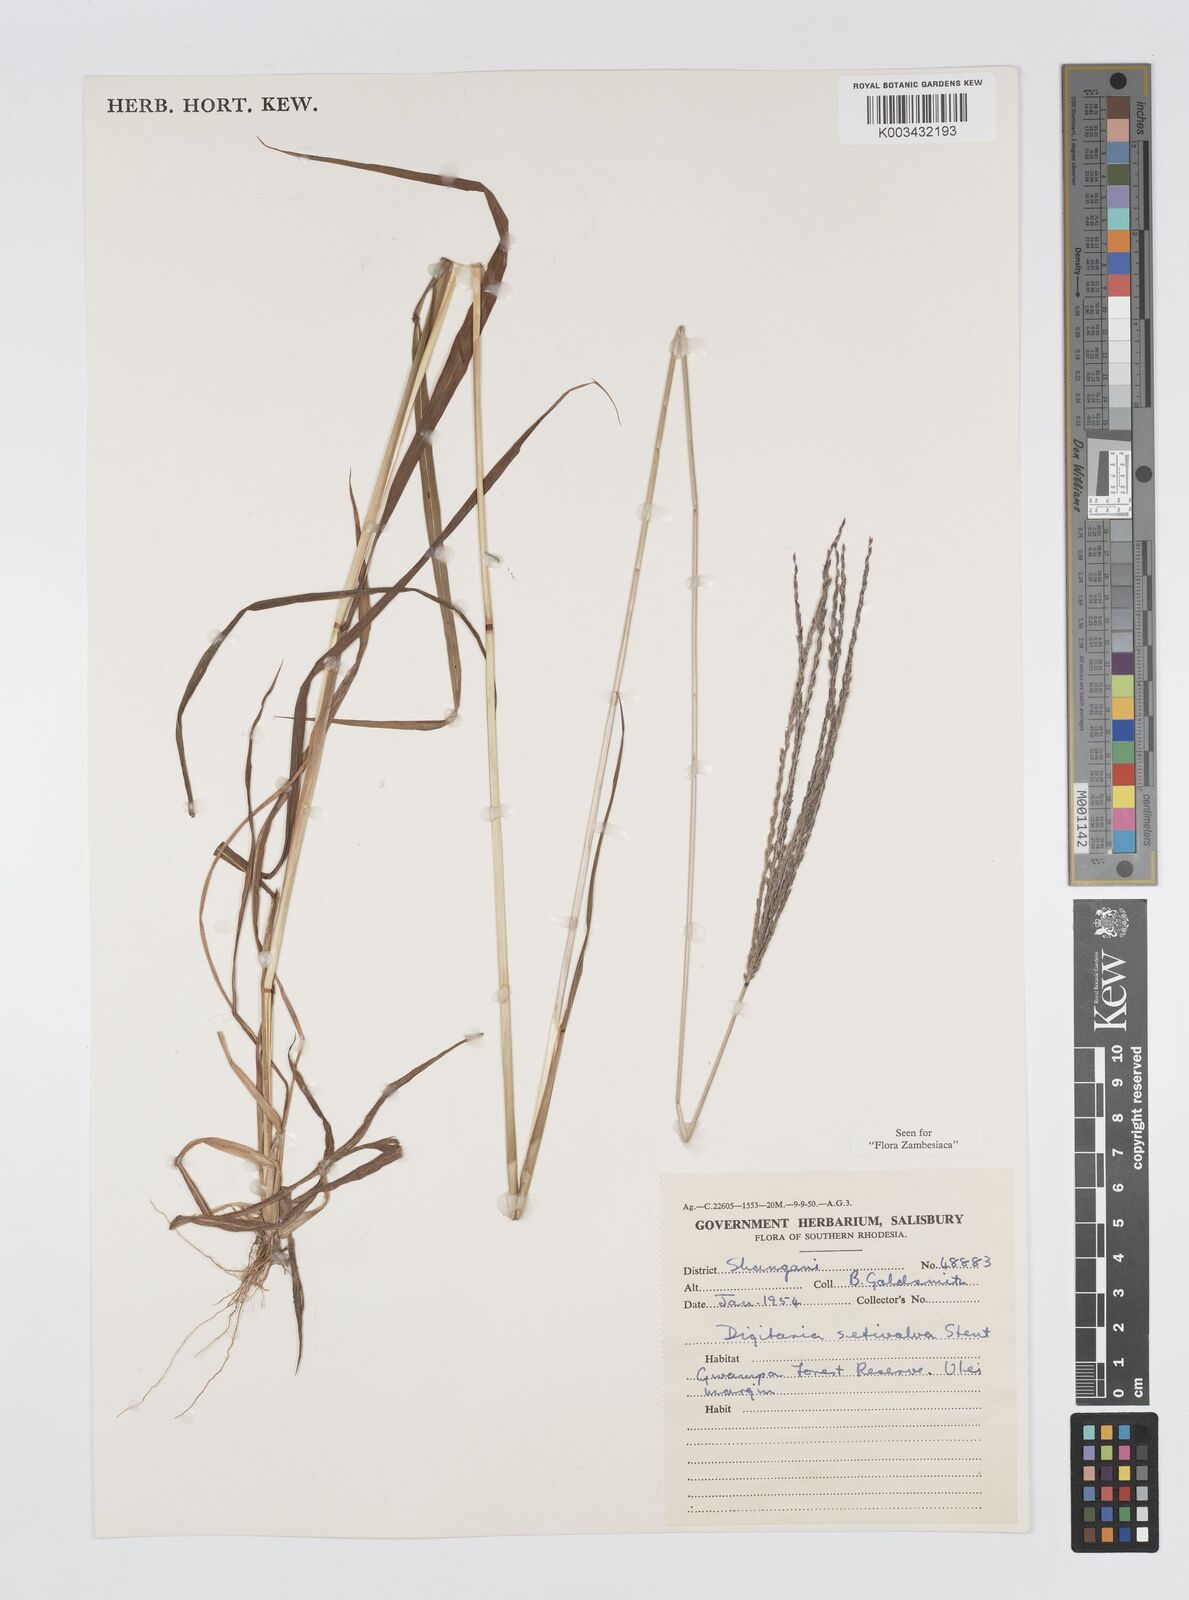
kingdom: Plantae
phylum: Tracheophyta
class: Liliopsida
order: Poales
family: Poaceae
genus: Digitaria
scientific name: Digitaria milanjiana
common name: Madagascar crabgrass
